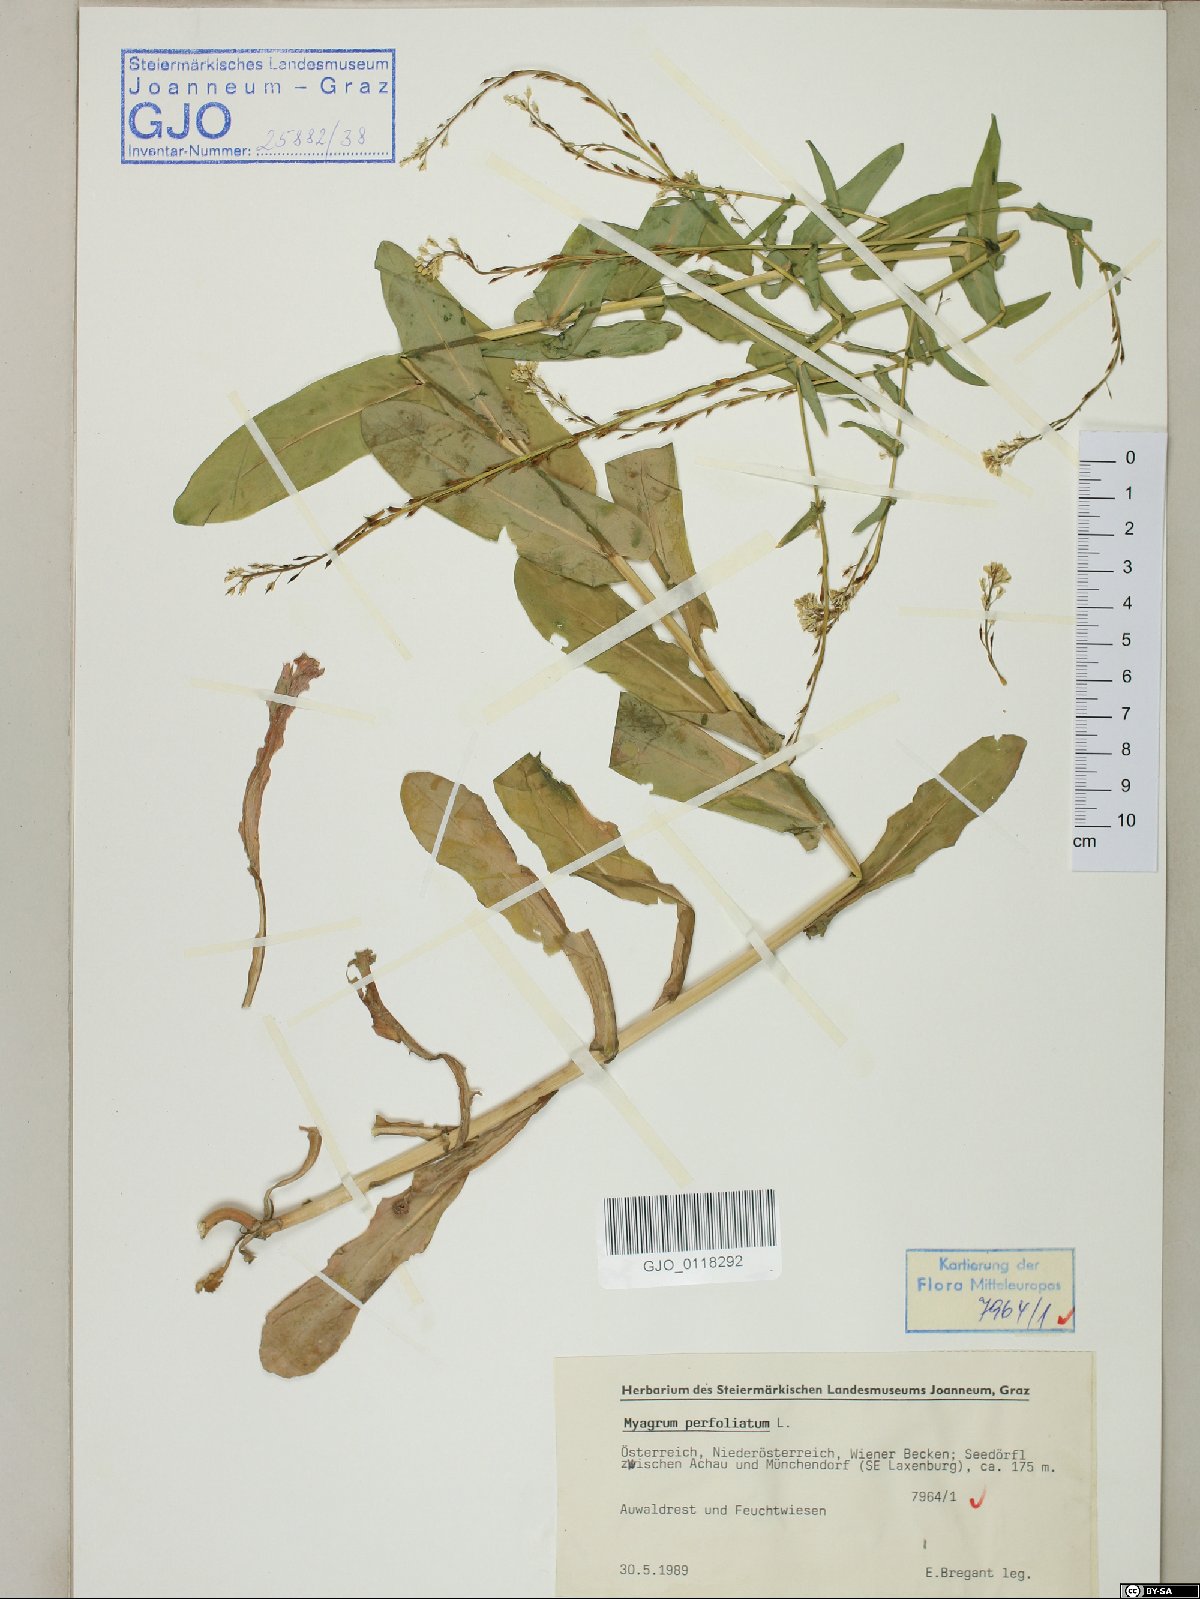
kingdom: Plantae
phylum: Tracheophyta
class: Magnoliopsida
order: Brassicales
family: Brassicaceae
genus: Myagrum
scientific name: Myagrum perfoliatum
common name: Mitre cress
